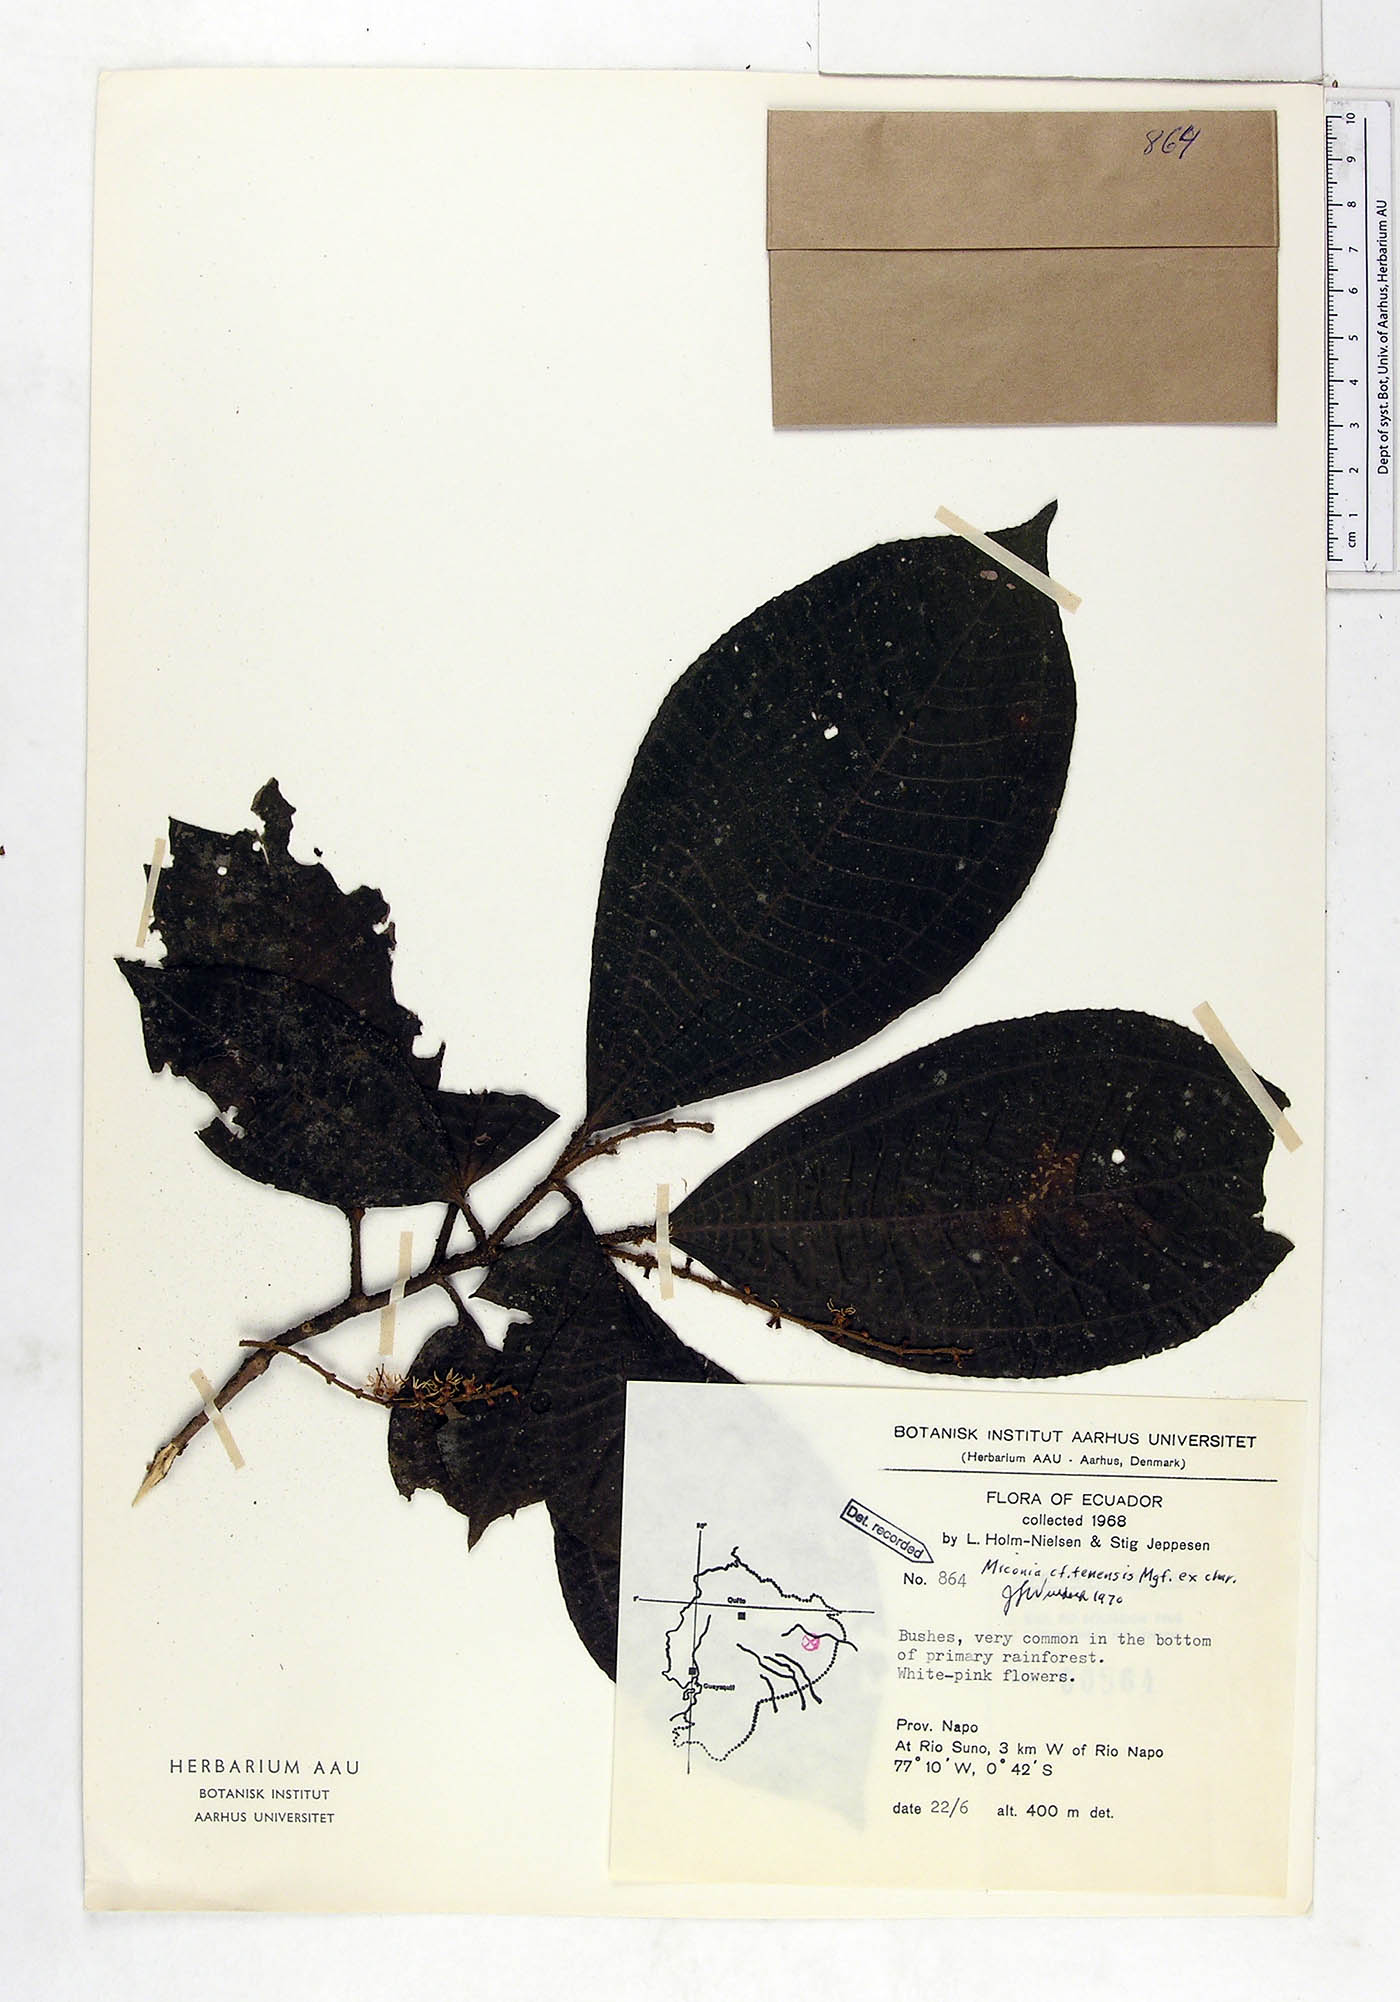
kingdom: Plantae
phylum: Tracheophyta
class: Magnoliopsida
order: Myrtales
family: Melastomataceae
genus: Miconia
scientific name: Miconia tenensis
